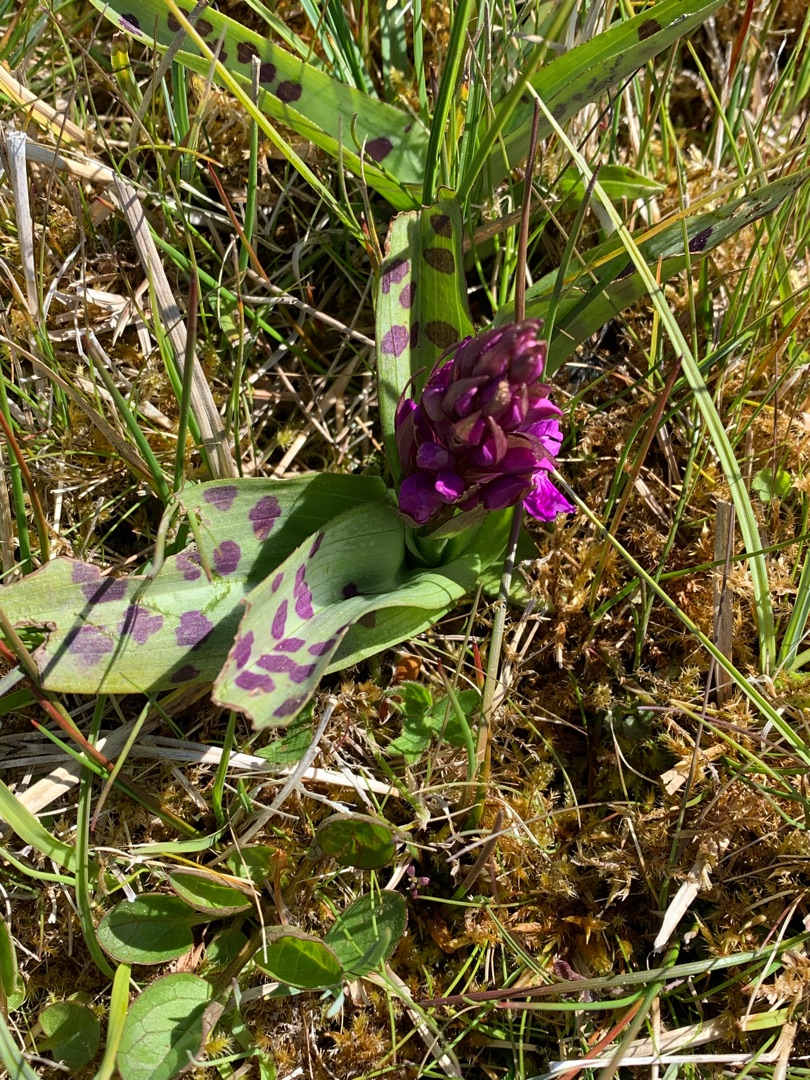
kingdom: Plantae
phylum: Tracheophyta
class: Liliopsida
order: Asparagales
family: Orchidaceae
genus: Dactylorhiza
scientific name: Dactylorhiza majalis
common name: Maj-gøgeurt
